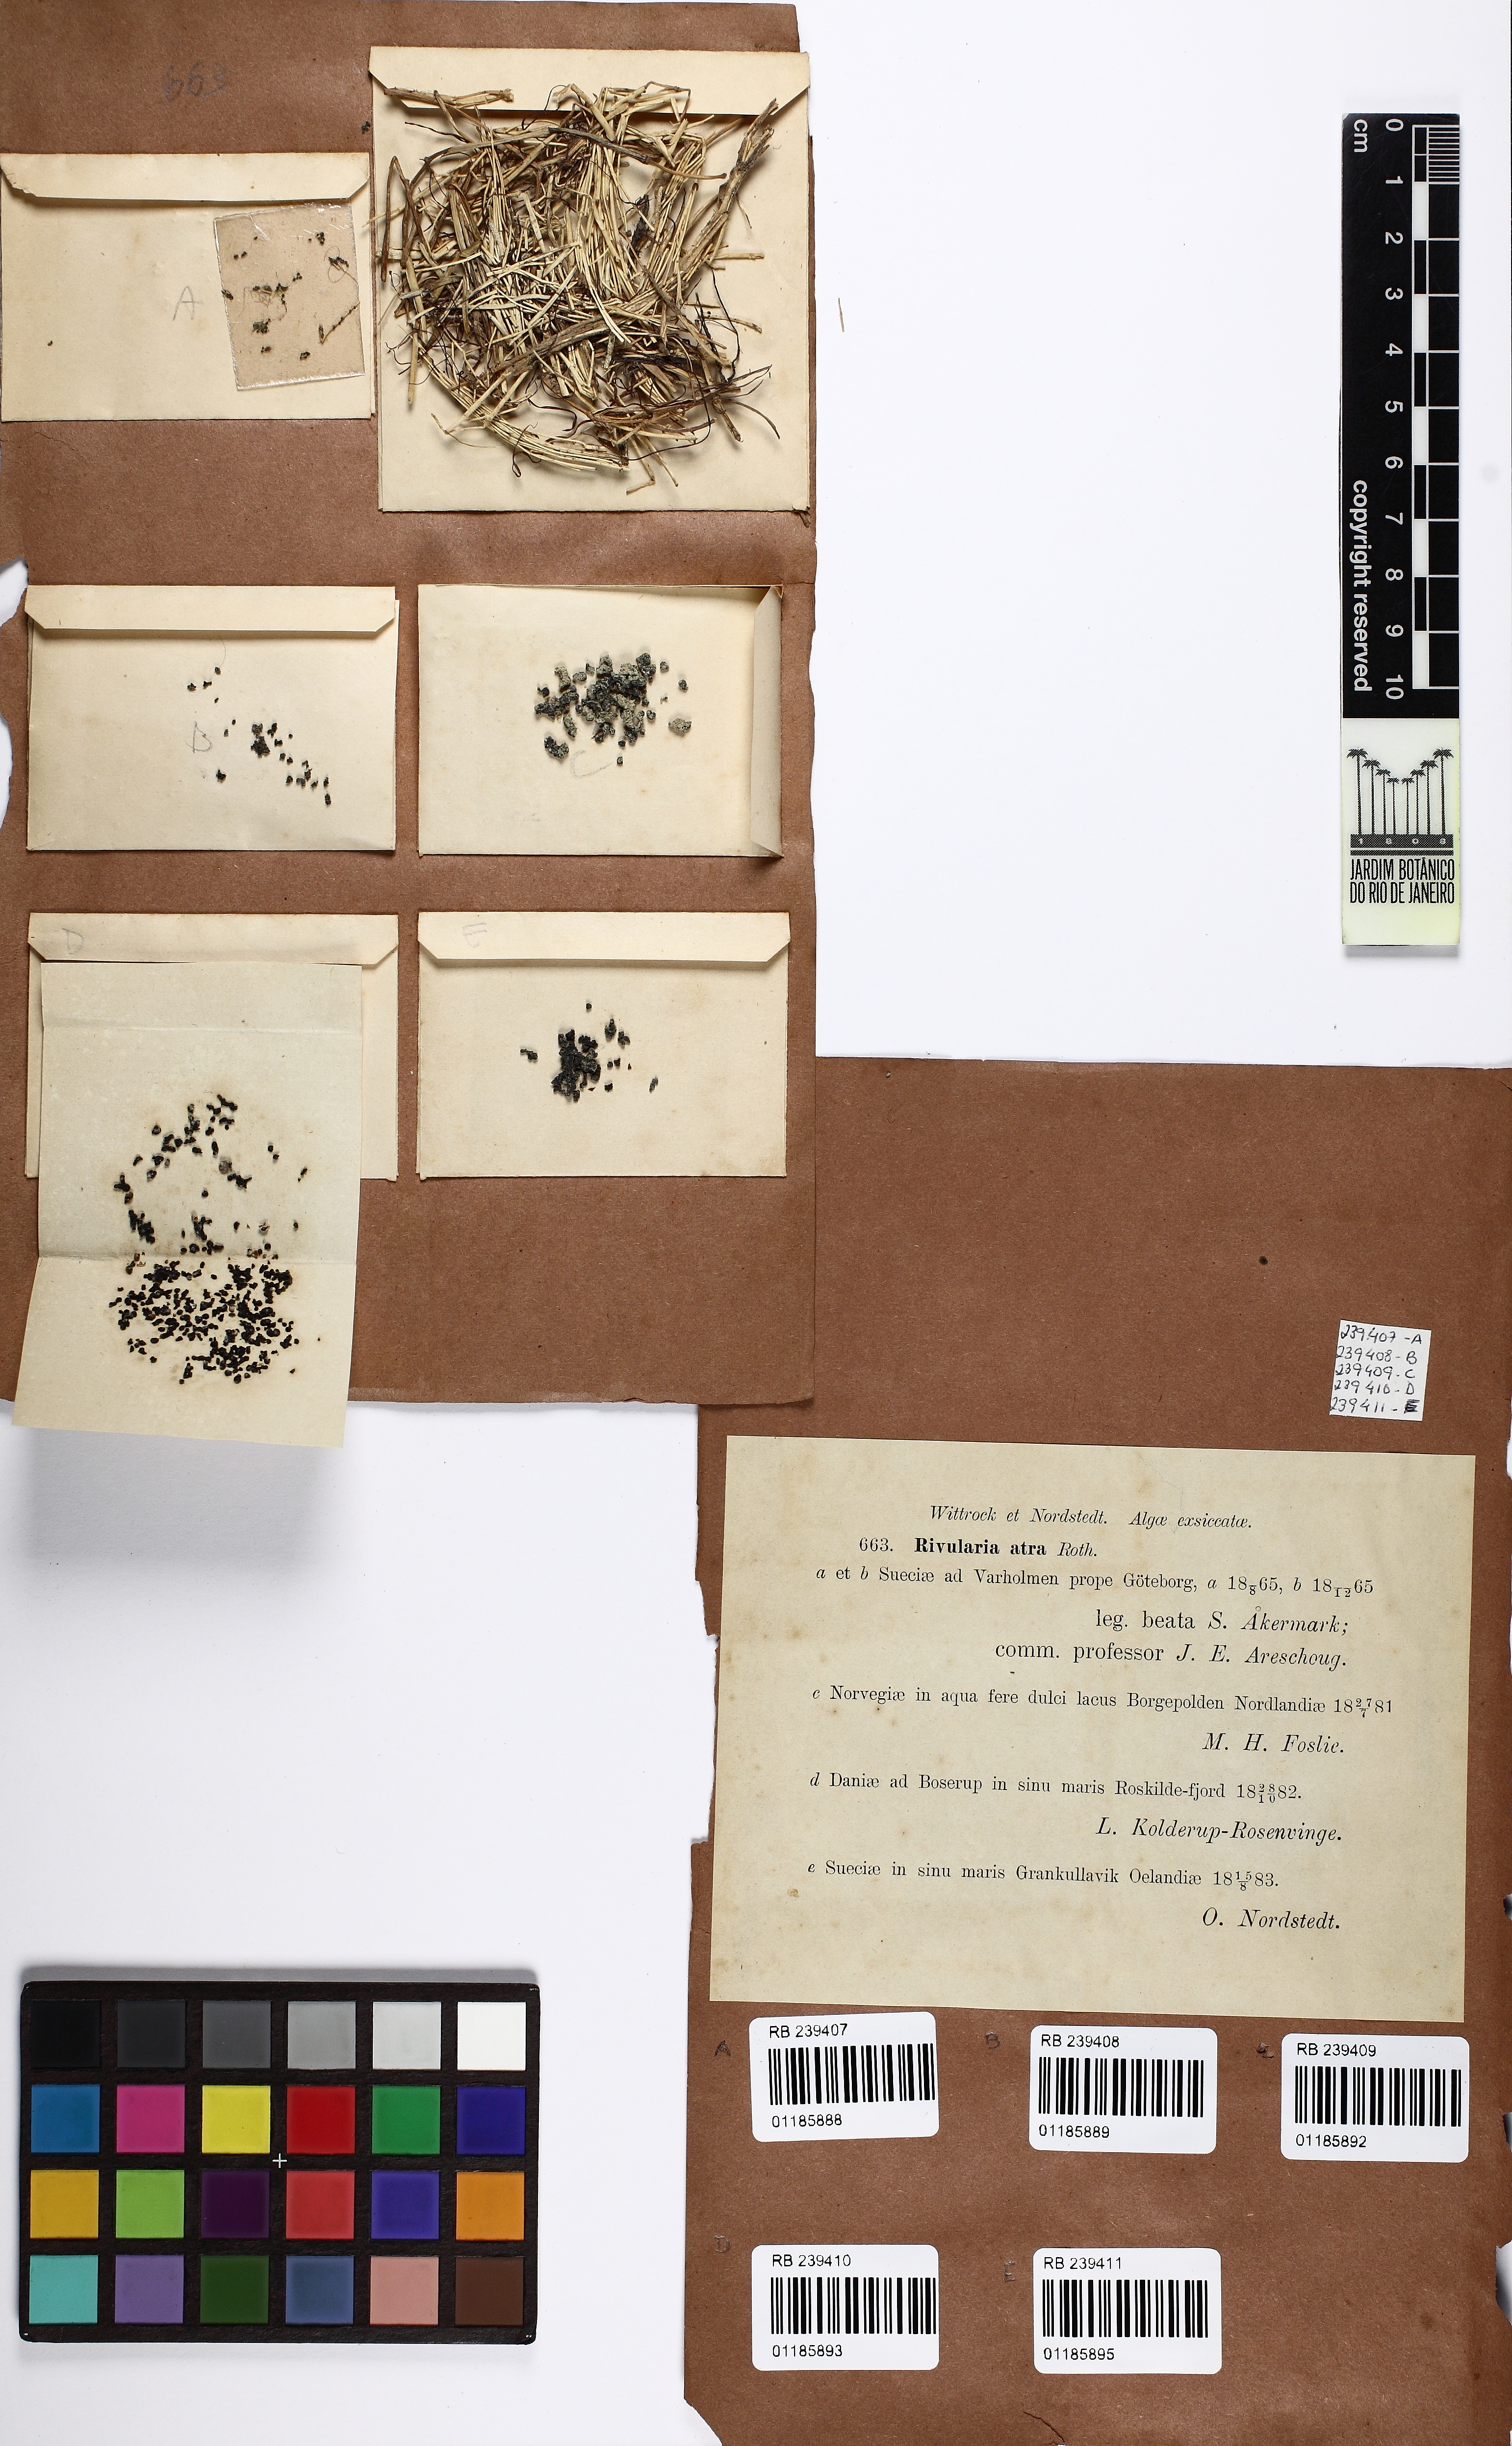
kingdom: Bacteria
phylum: Cyanobacteria
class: Cyanobacteriia
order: Cyanobacteriales
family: Nostocaceae
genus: Rivularia
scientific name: Rivularia atra
